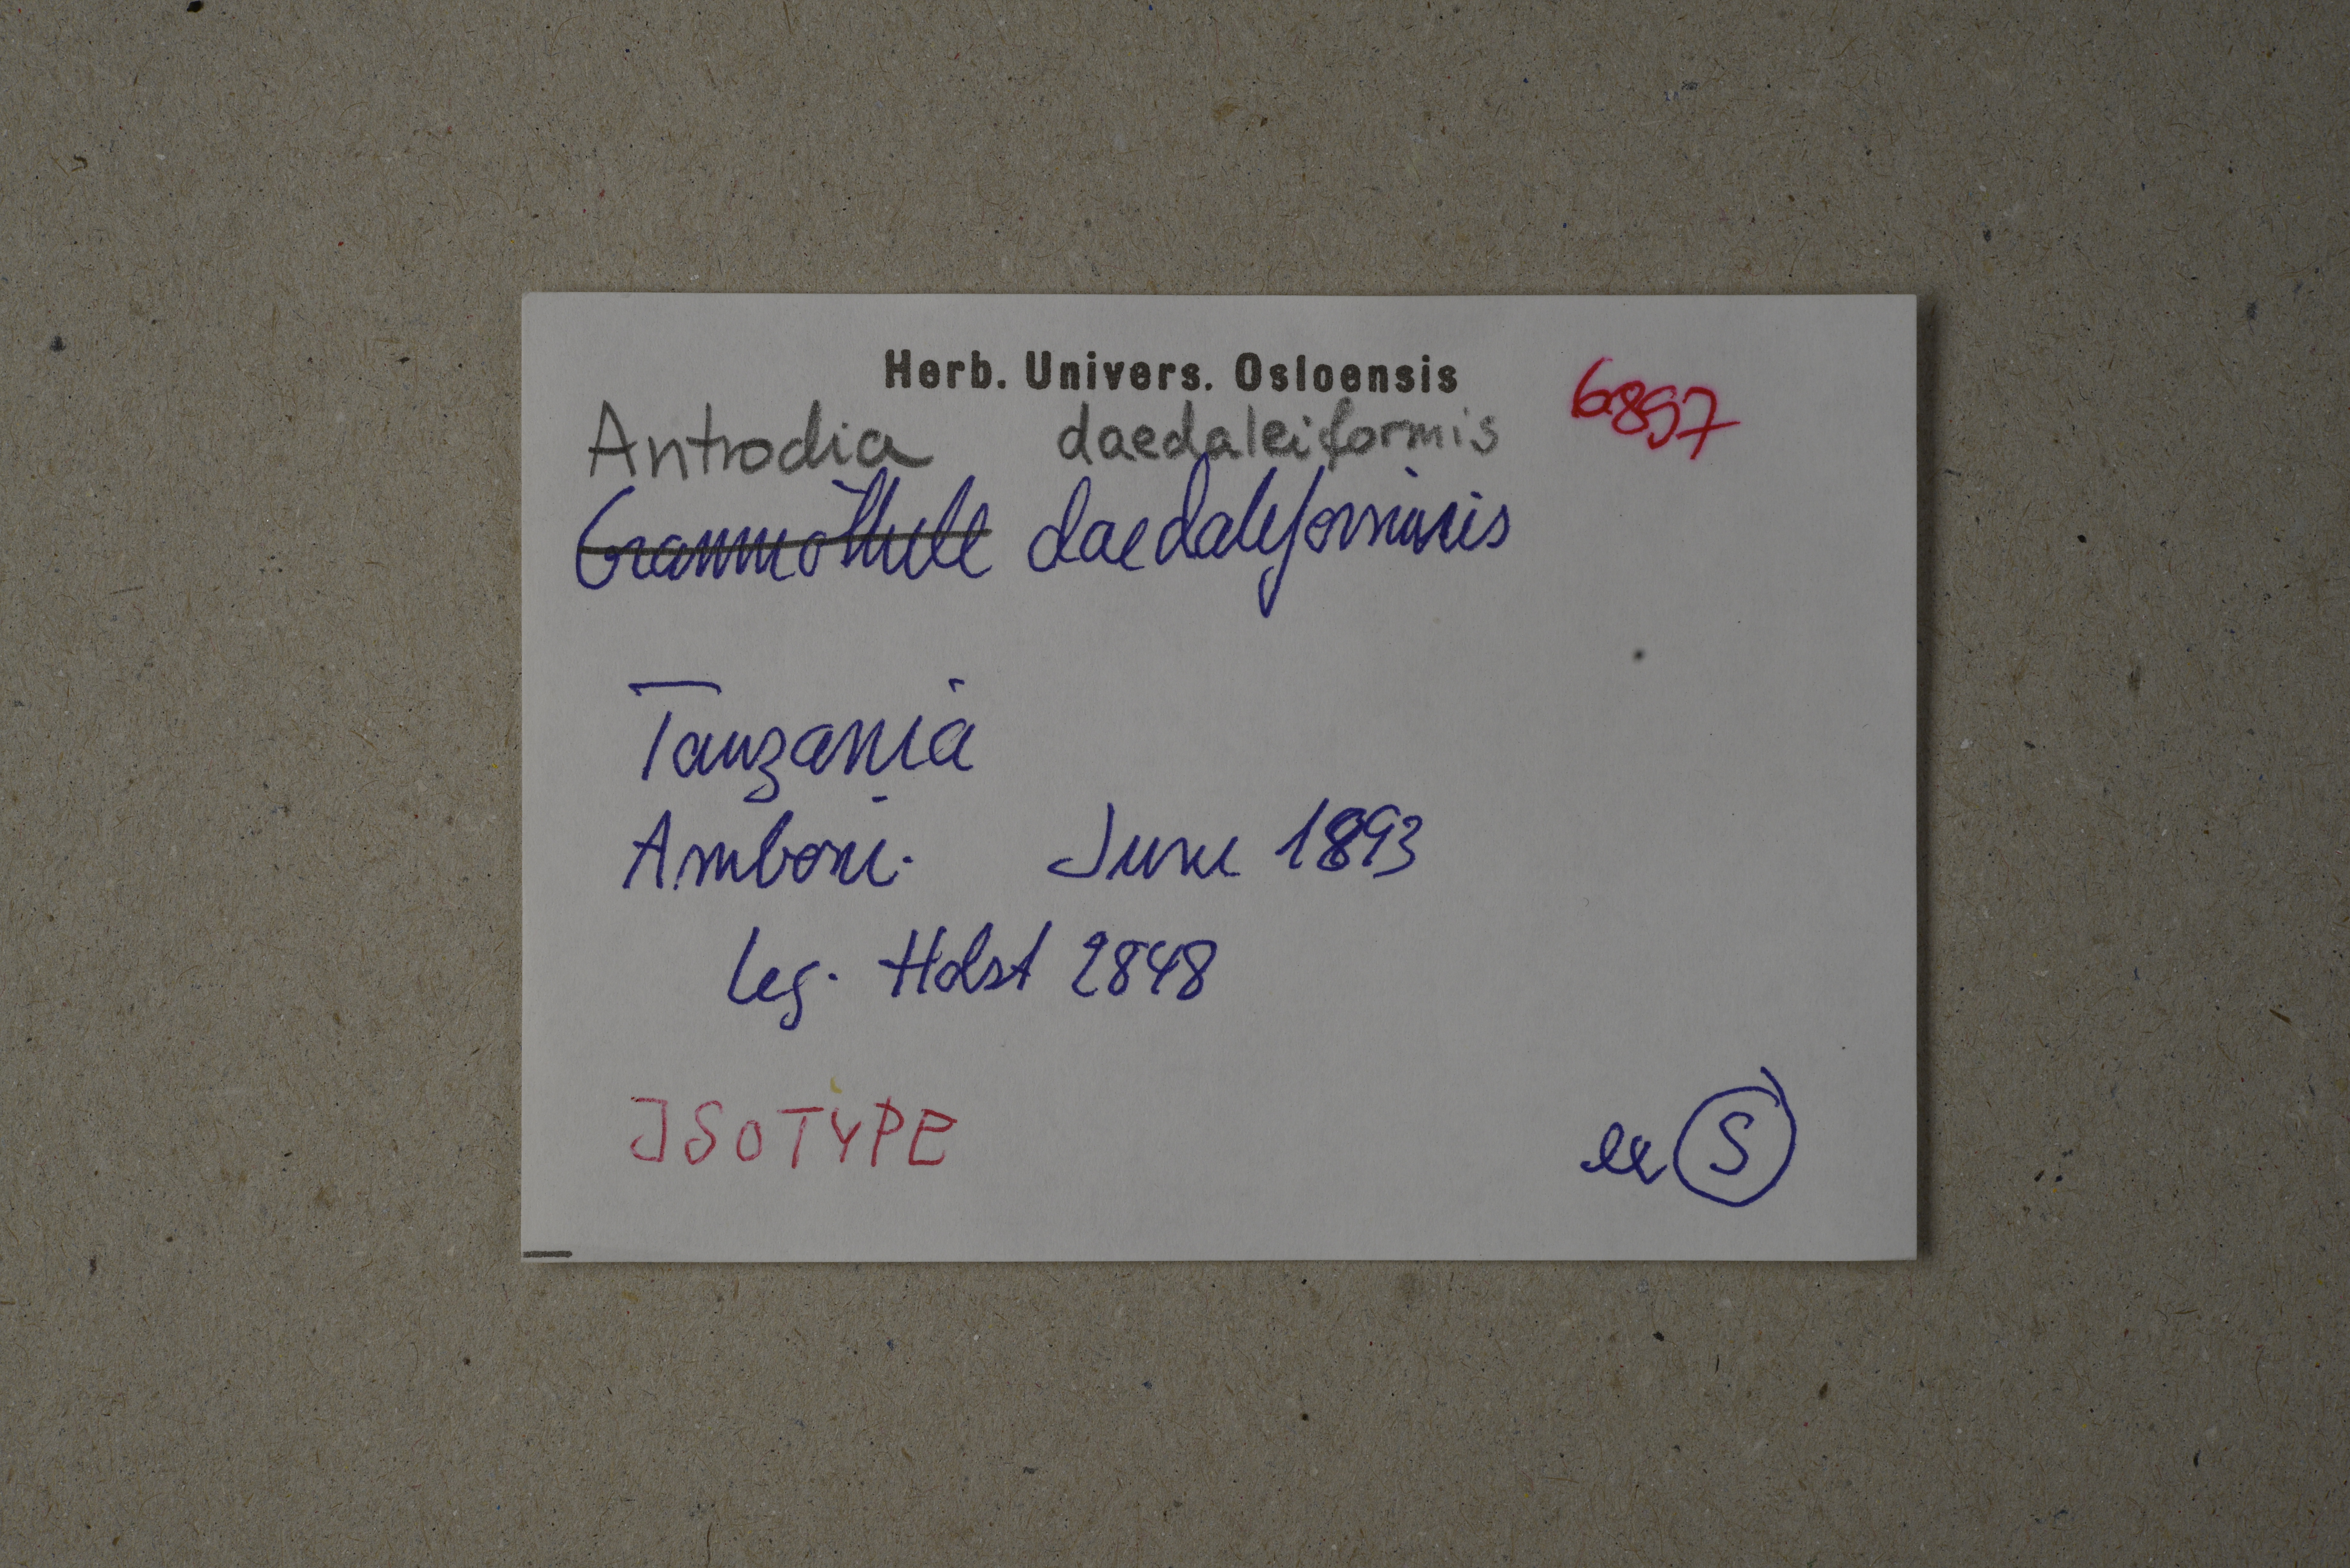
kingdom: Fungi
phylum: Basidiomycota
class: Agaricomycetes
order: Polyporales
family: Polyporaceae
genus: Diplomitoporus
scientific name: Diplomitoporus daedaleiformis
